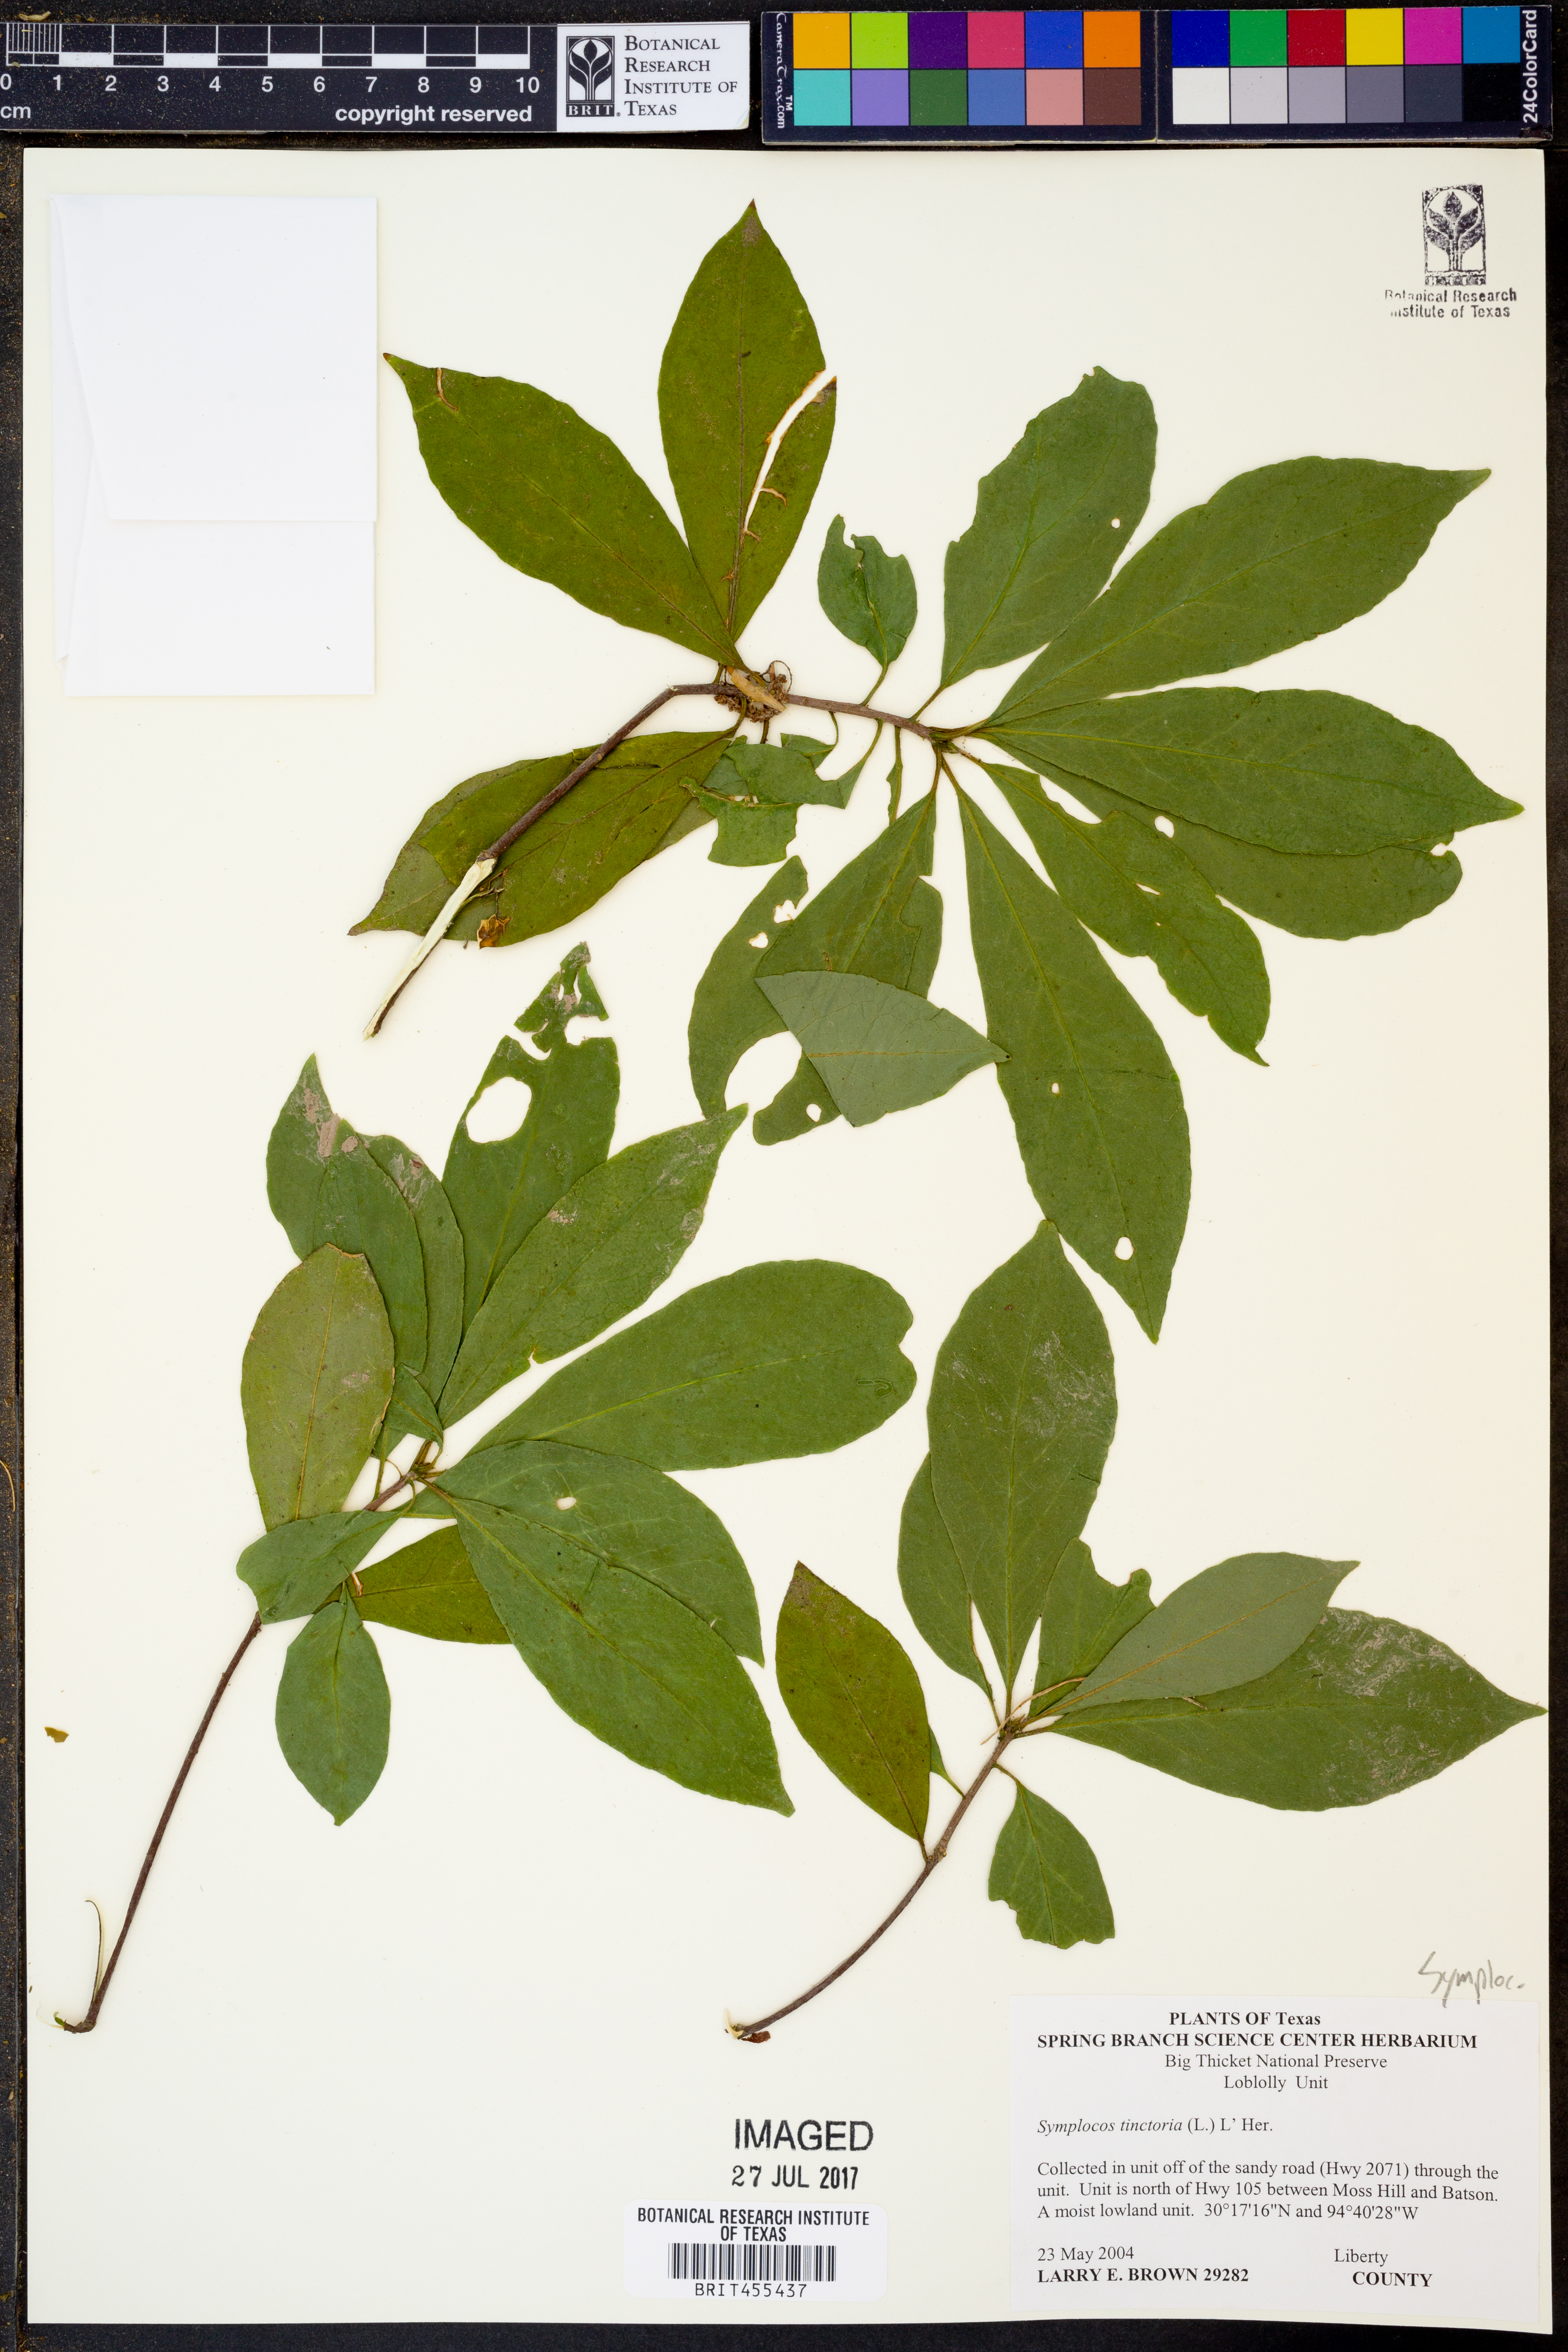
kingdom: Plantae
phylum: Tracheophyta
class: Magnoliopsida
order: Ericales
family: Symplocaceae
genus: Symplocos
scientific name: Symplocos tinctoria
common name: Horse-sugar
